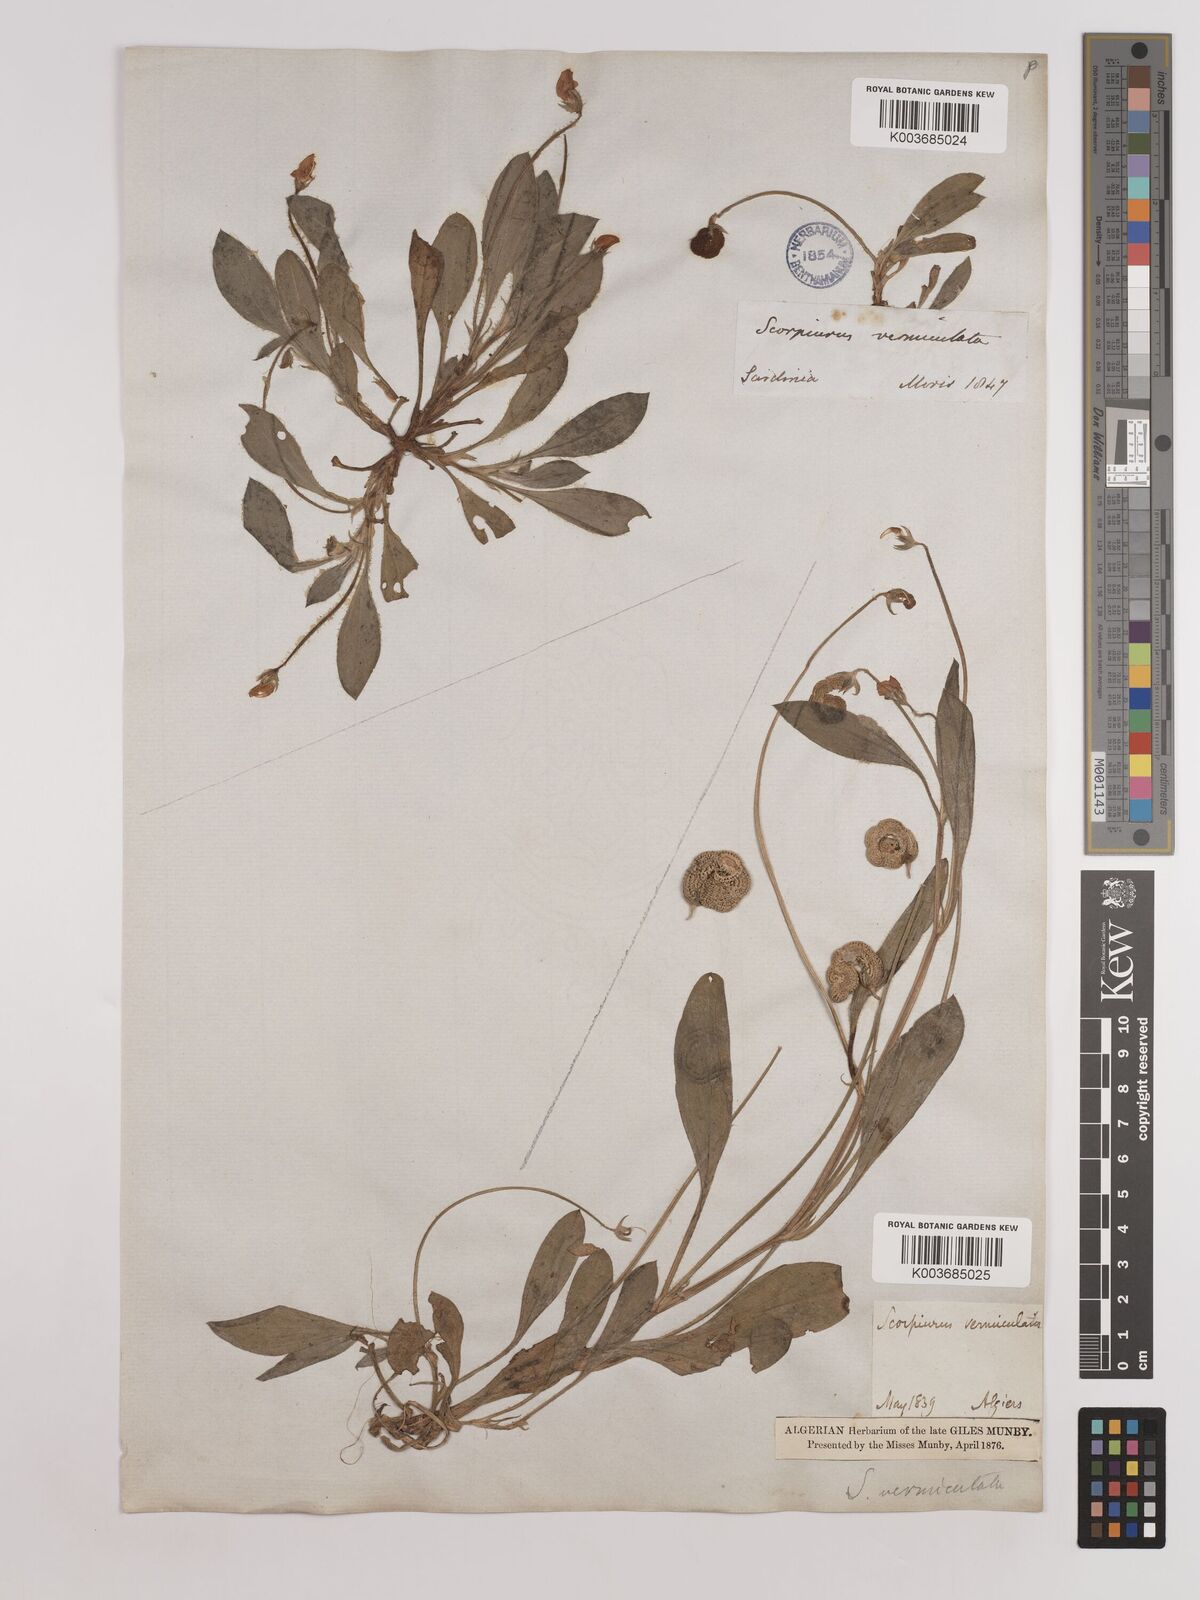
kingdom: Plantae
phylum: Tracheophyta
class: Magnoliopsida
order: Fabales
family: Fabaceae
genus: Scorpiurus
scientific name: Scorpiurus vermiculatus
